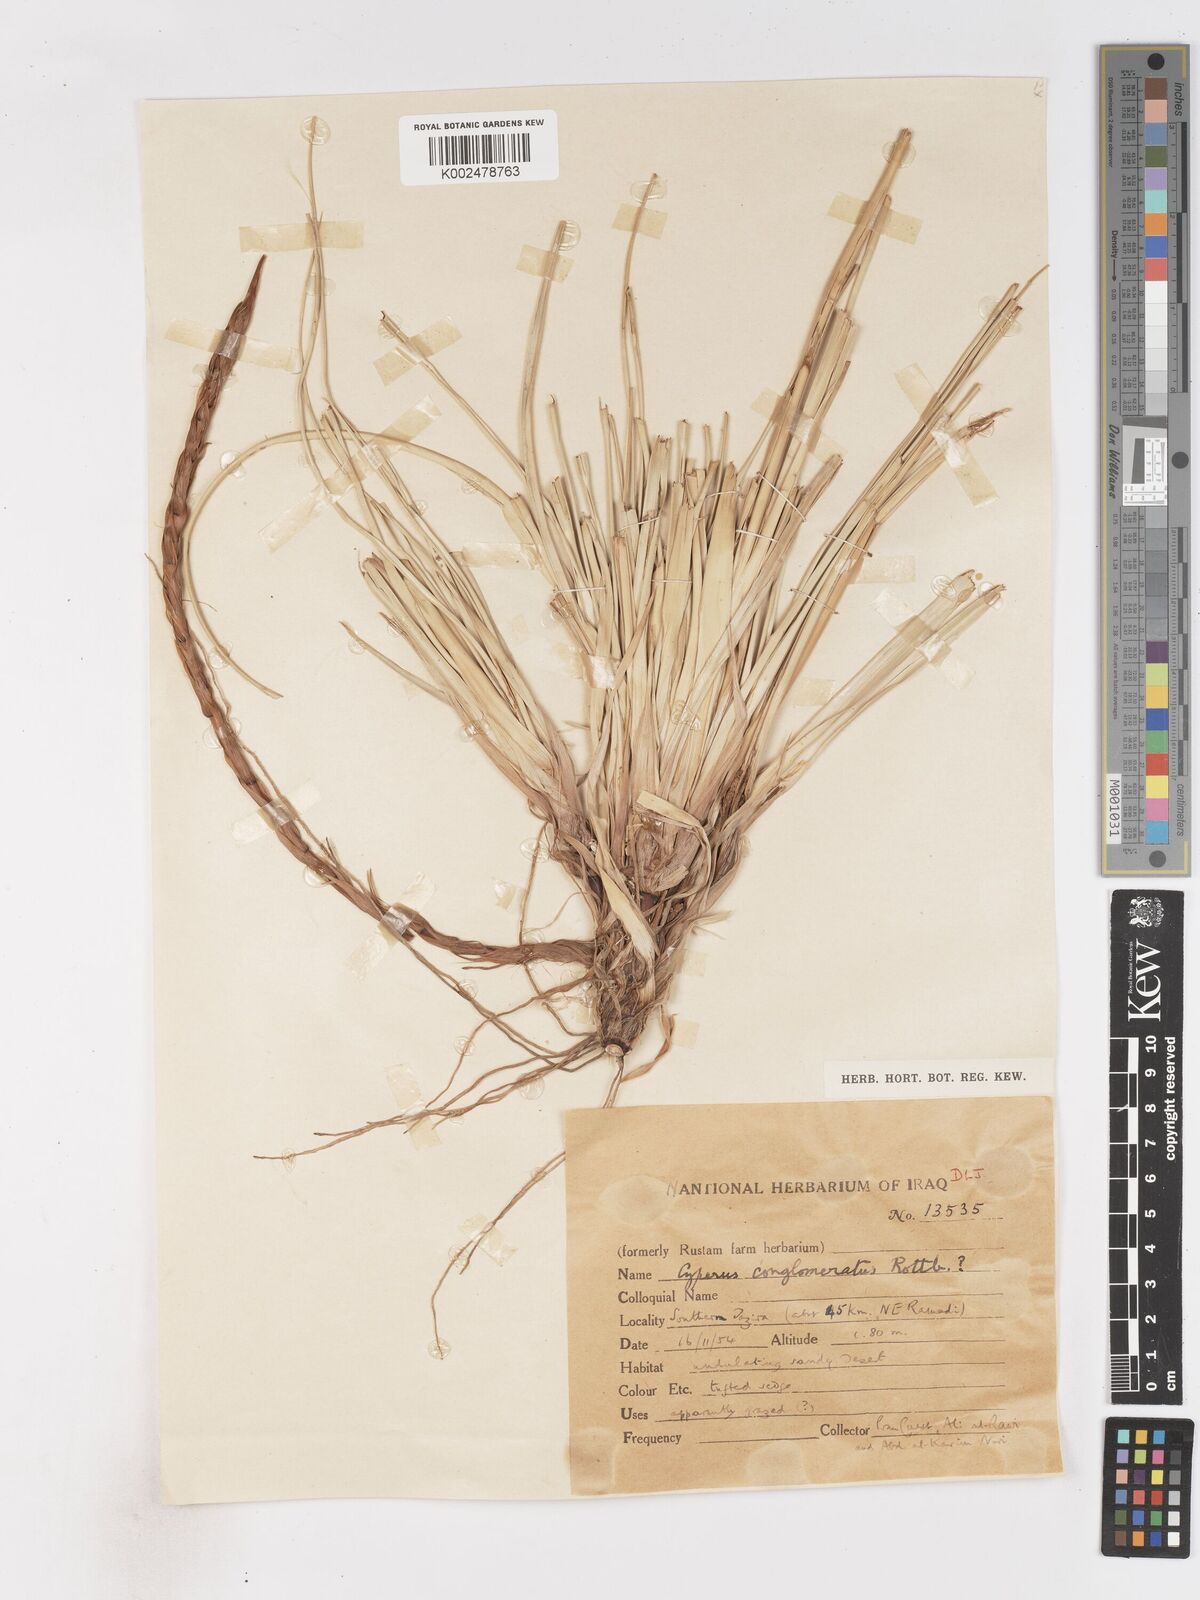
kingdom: Plantae
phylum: Tracheophyta
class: Liliopsida
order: Poales
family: Cyperaceae
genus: Cyperus
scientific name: Cyperus aucheri
